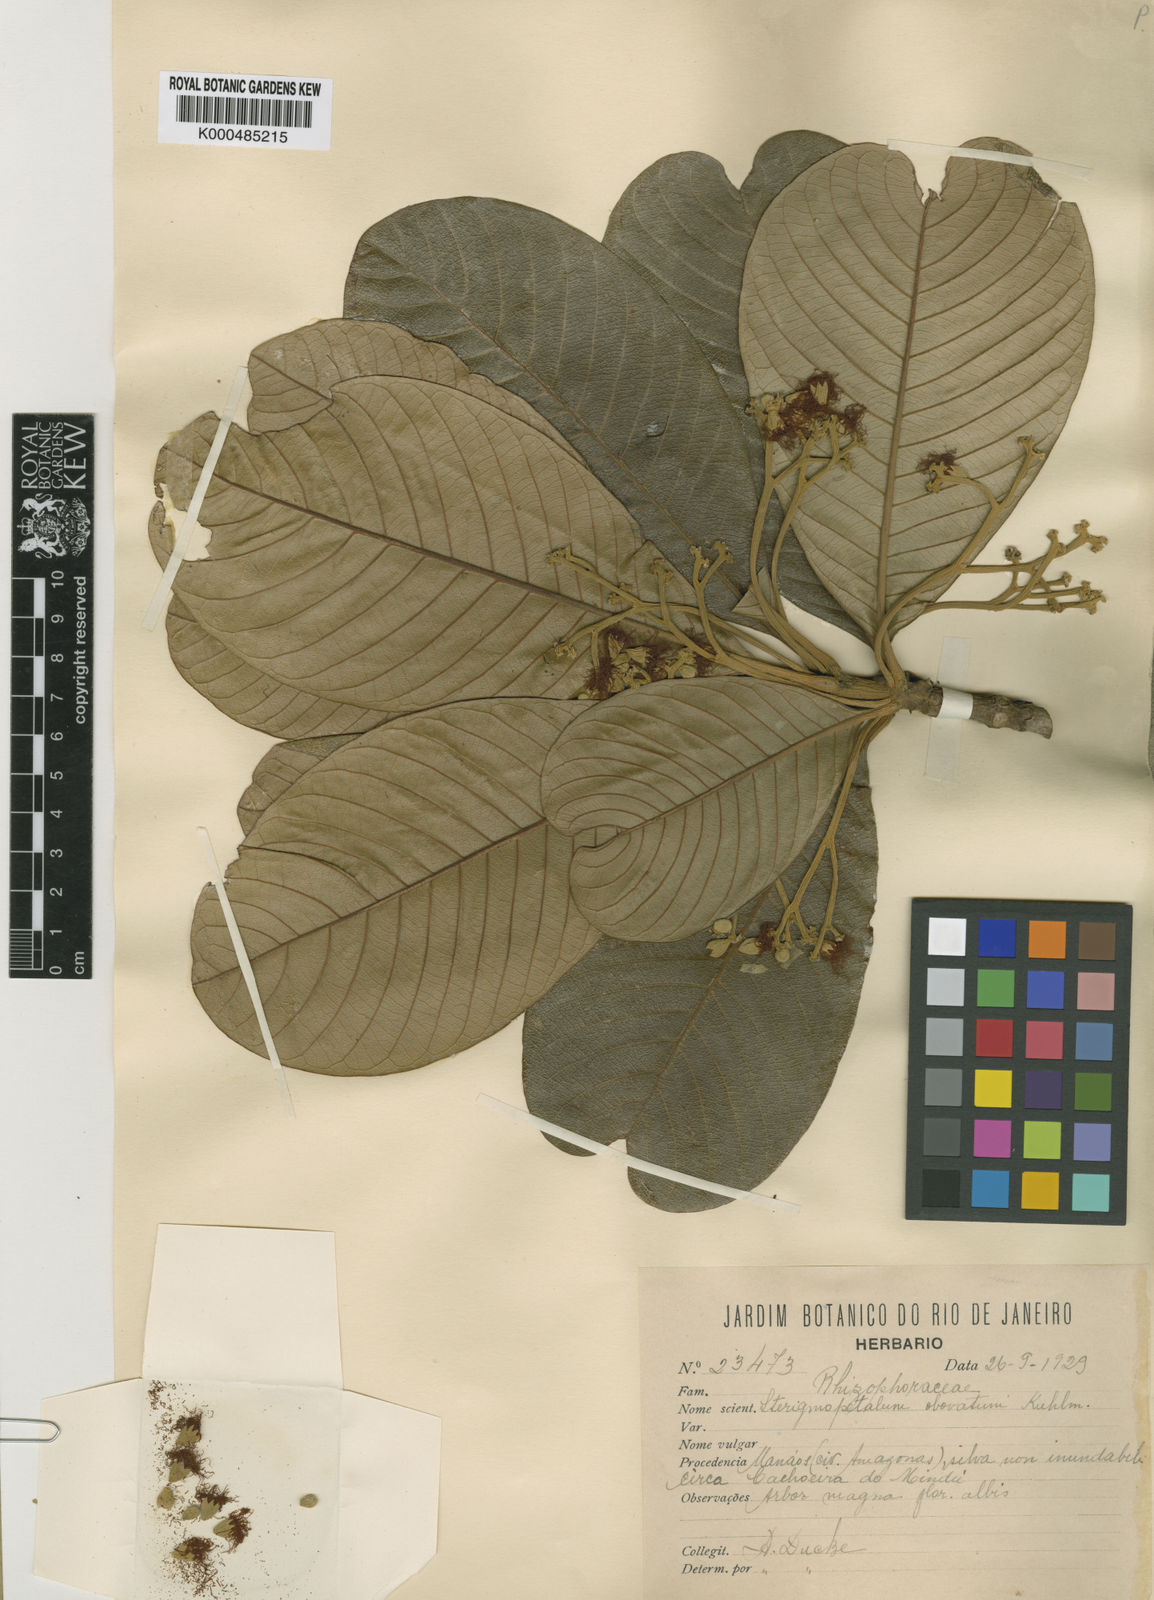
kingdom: Plantae
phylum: Tracheophyta
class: Magnoliopsida
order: Malpighiales
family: Rhizophoraceae
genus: Sterigmapetalum
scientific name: Sterigmapetalum obovatum
